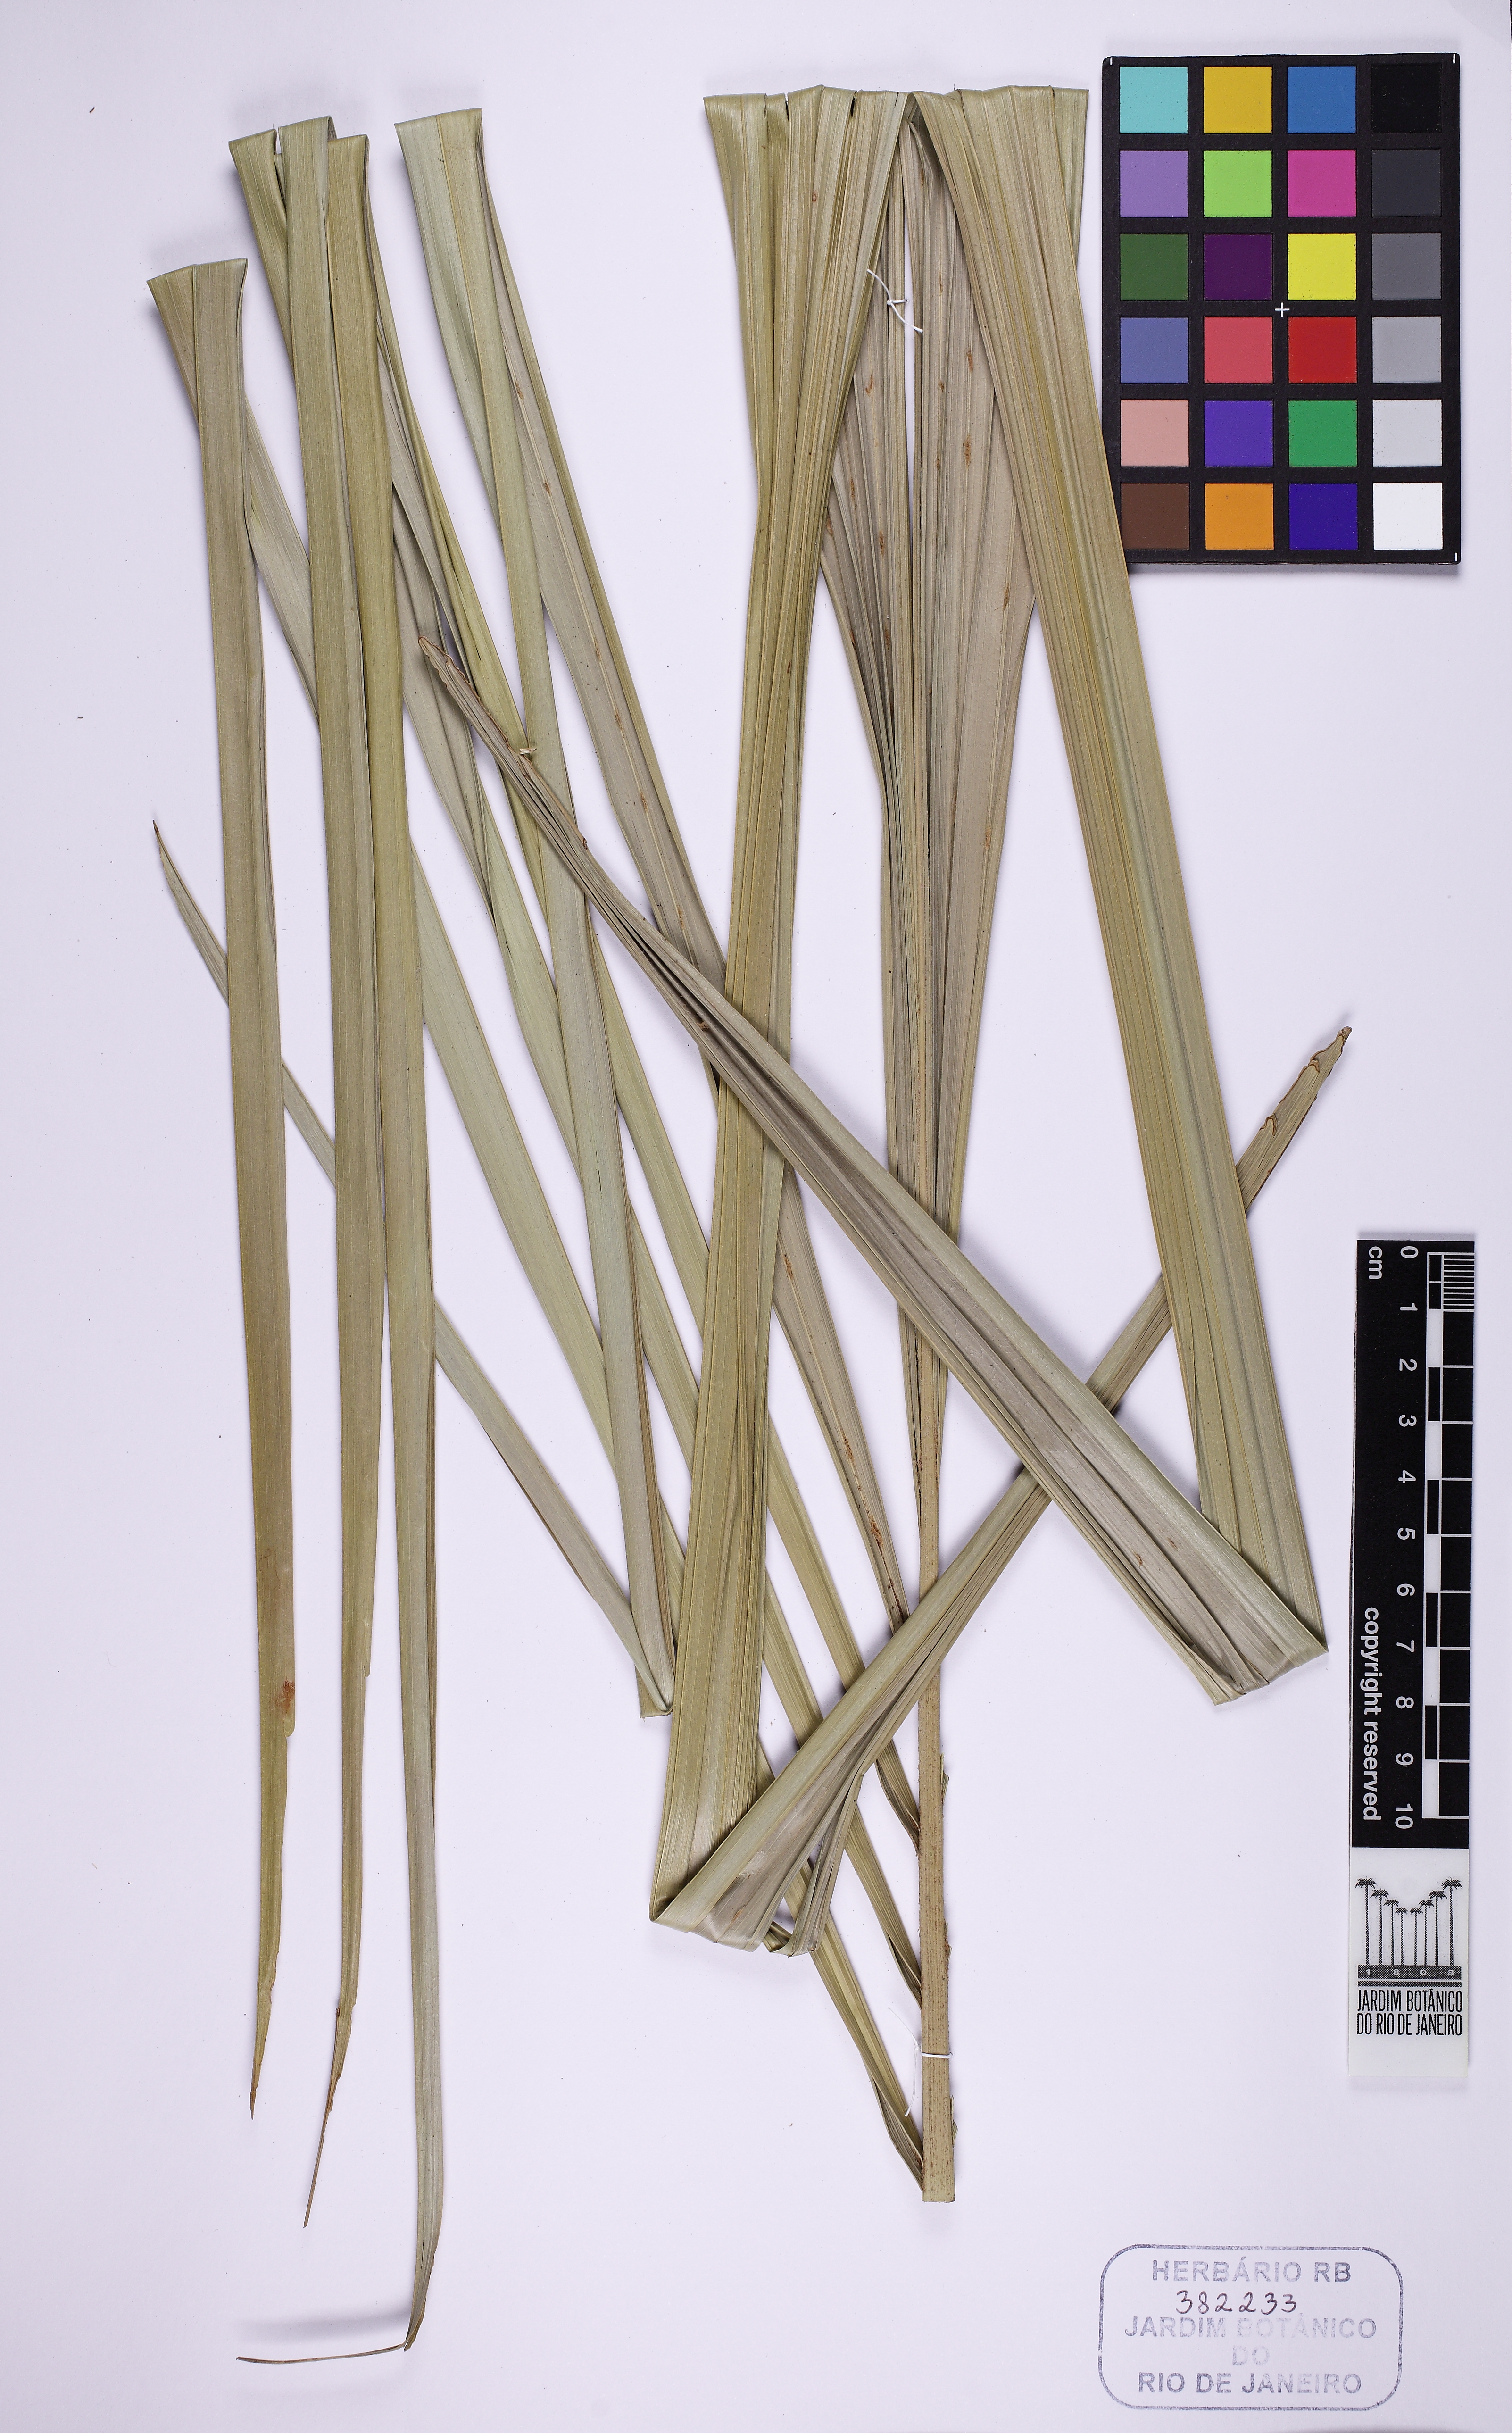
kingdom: Plantae
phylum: Tracheophyta
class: Liliopsida
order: Arecales
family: Arecaceae
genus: Syagrus
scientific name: Syagrus schizophylla
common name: Arikury palm
